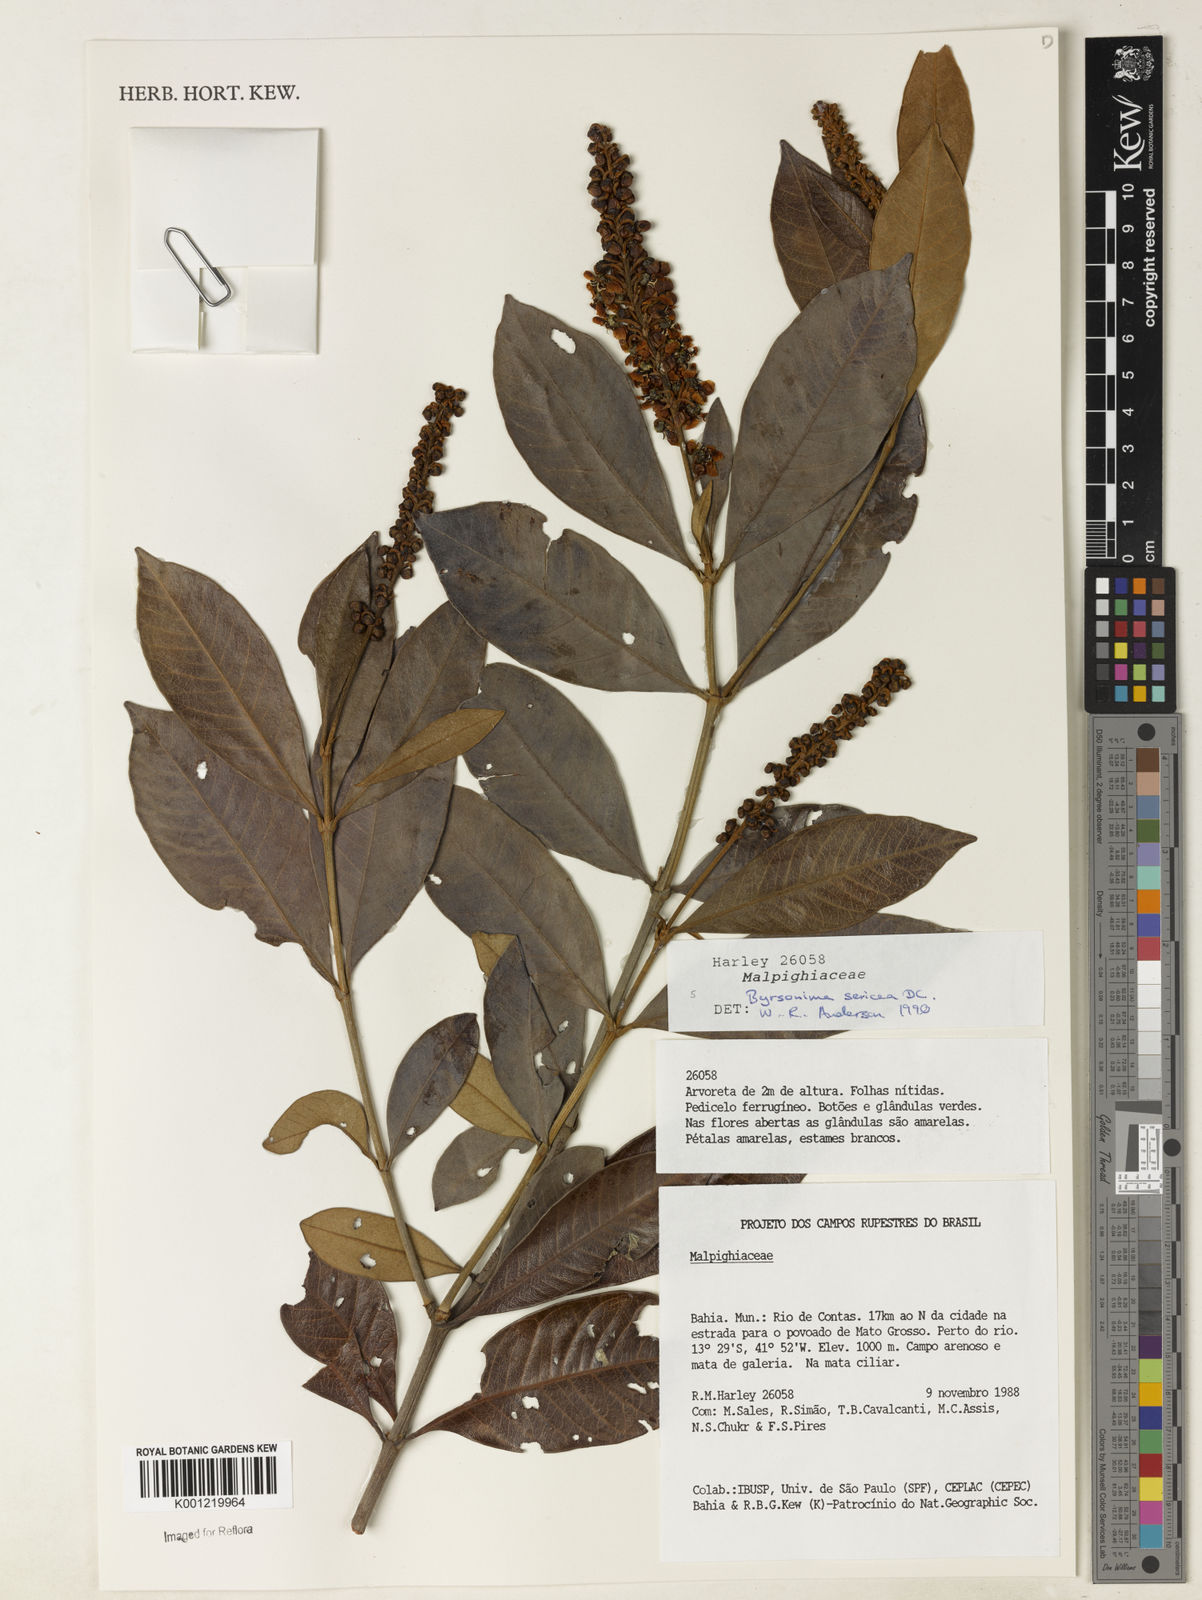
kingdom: Plantae
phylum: Tracheophyta
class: Magnoliopsida
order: Malpighiales
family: Malpighiaceae
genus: Byrsonima
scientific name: Byrsonima sericea
